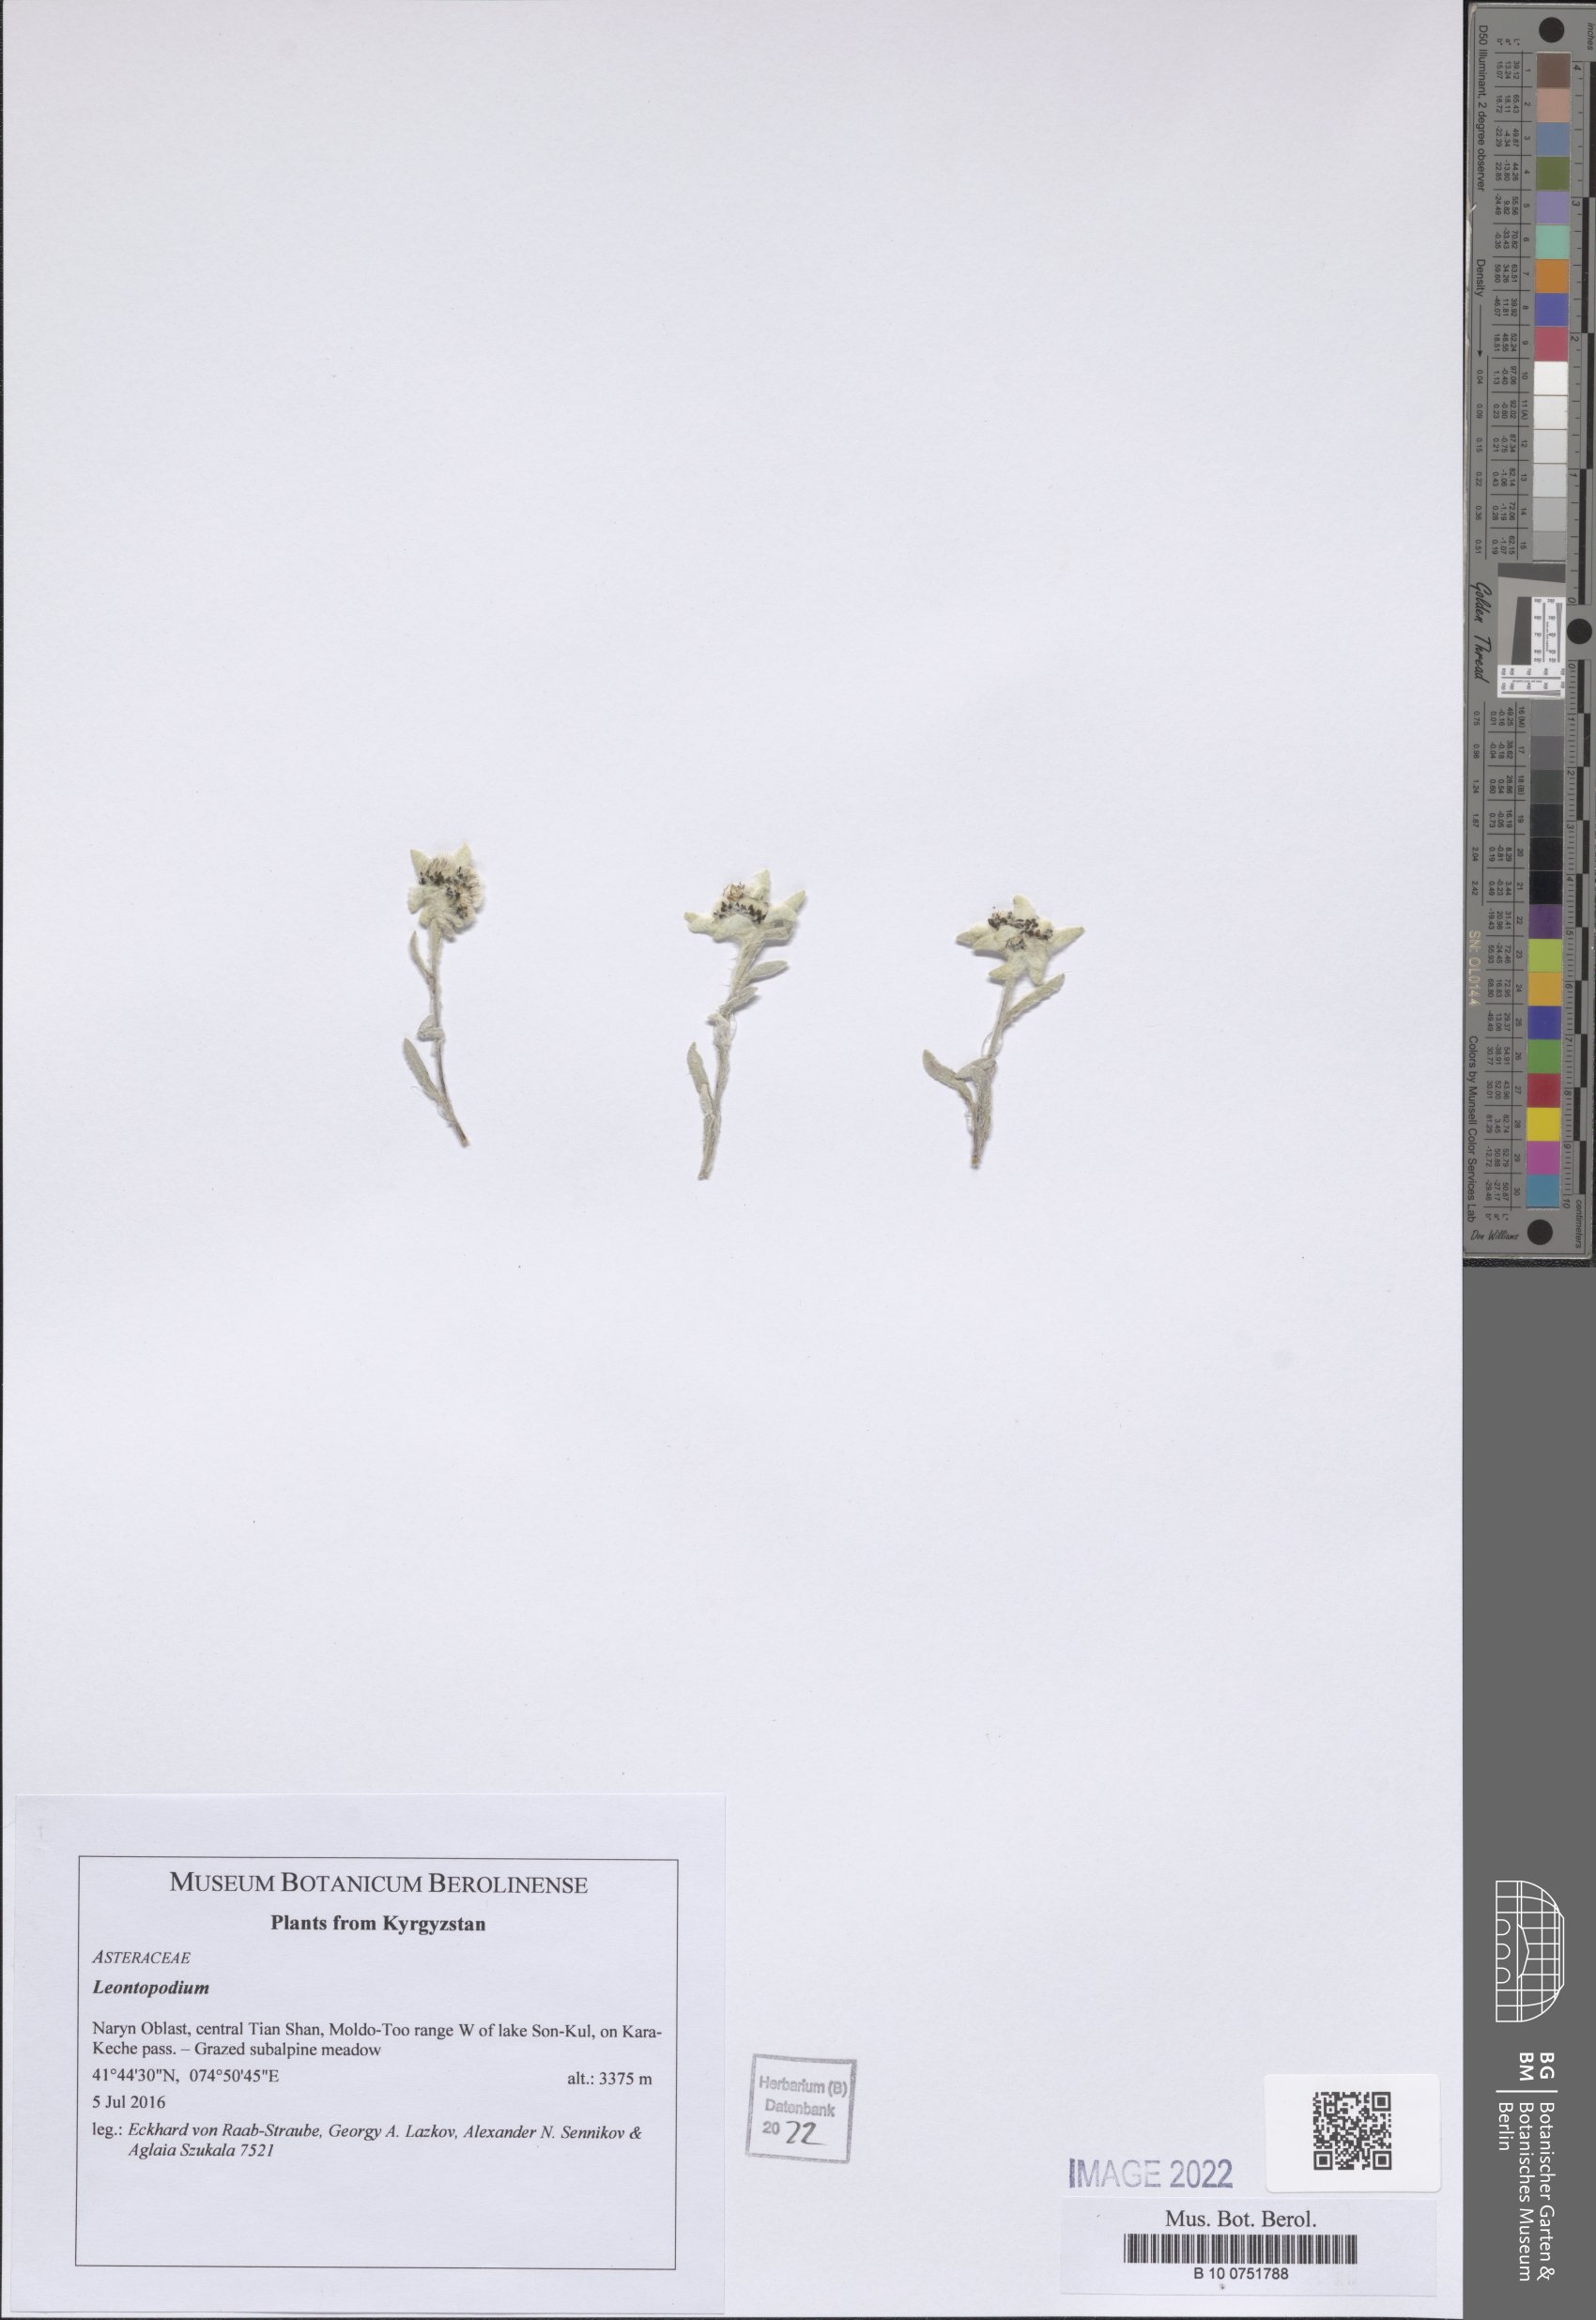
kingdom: Plantae
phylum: Tracheophyta
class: Magnoliopsida
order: Asterales
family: Asteraceae
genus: Leontopodium
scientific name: Leontopodium
